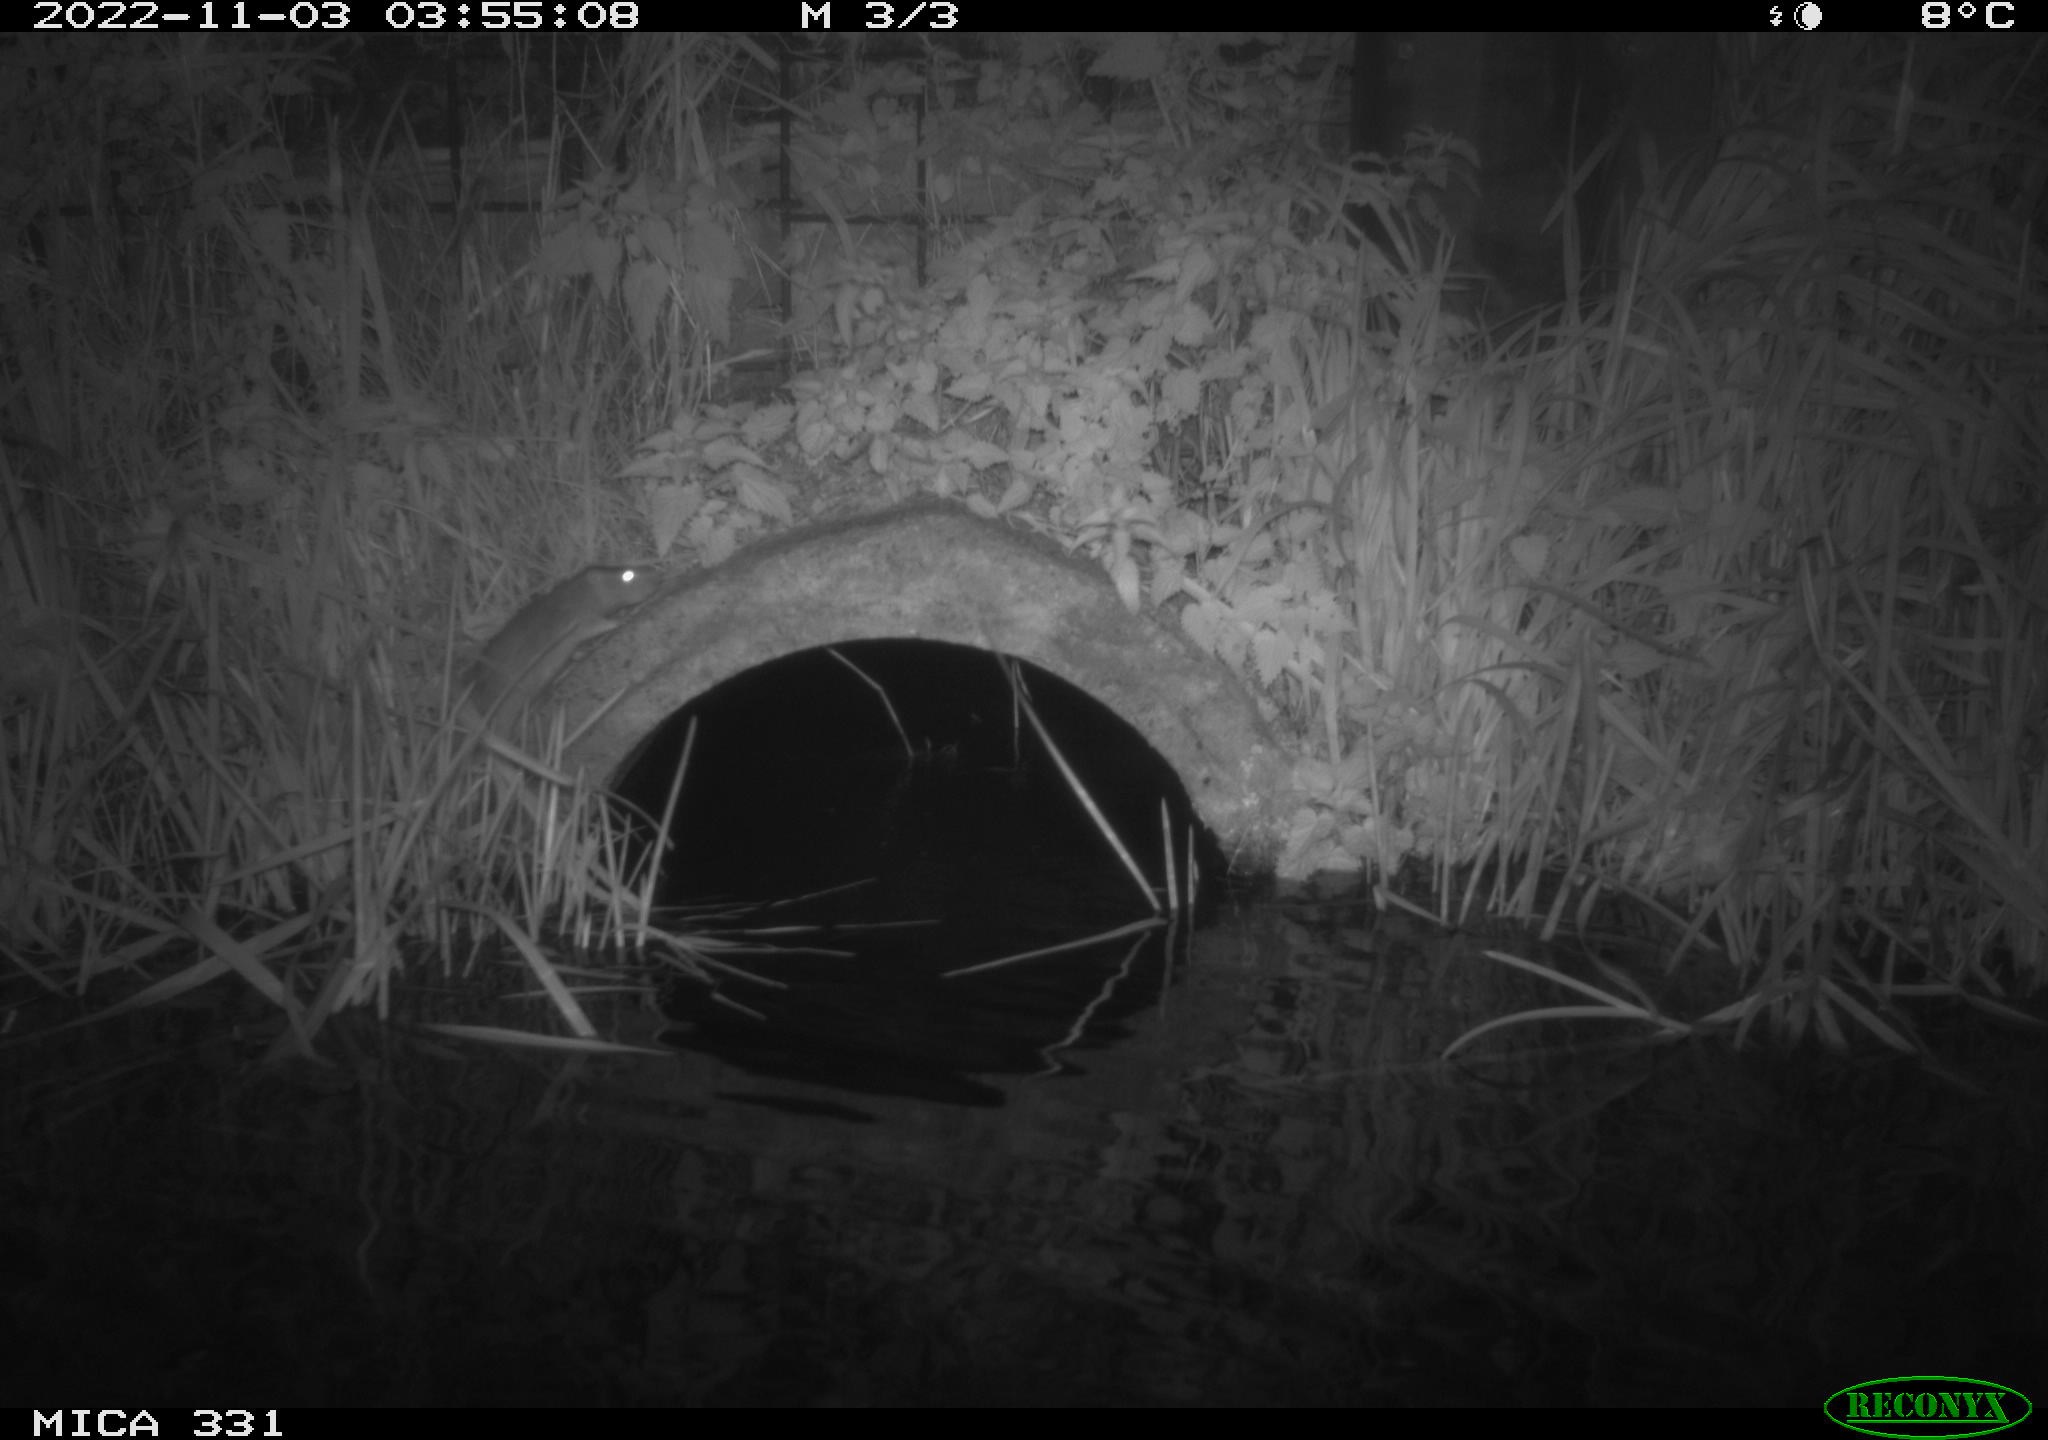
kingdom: Animalia
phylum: Chordata
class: Mammalia
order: Rodentia
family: Muridae
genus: Rattus
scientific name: Rattus norvegicus
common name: Brown rat
